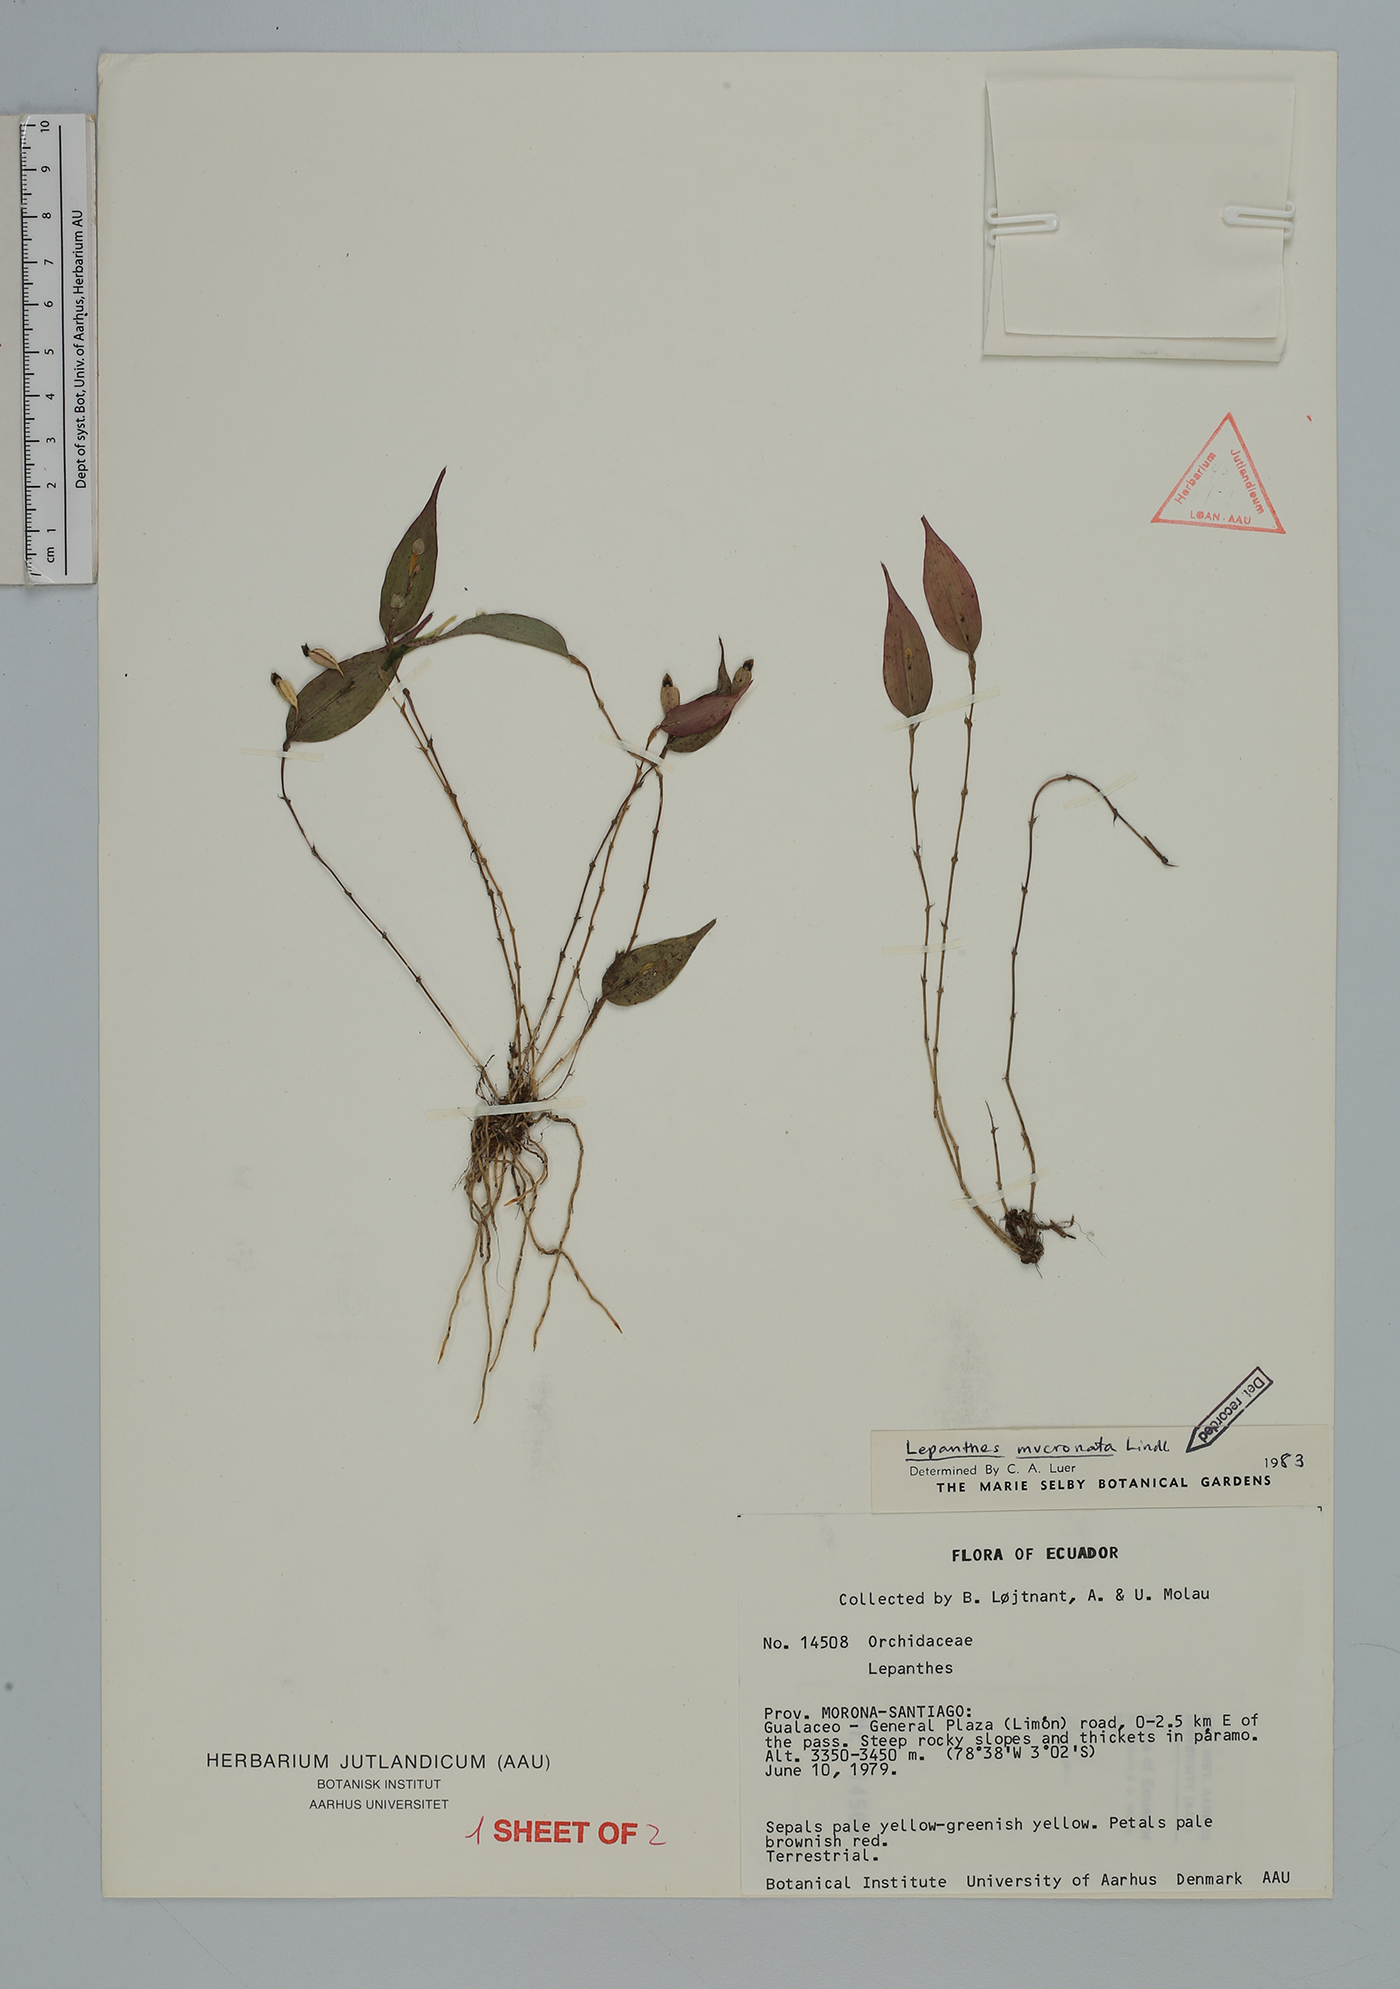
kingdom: Plantae
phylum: Tracheophyta
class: Liliopsida
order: Asparagales
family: Orchidaceae
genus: Lepanthes
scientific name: Lepanthes mucronata
